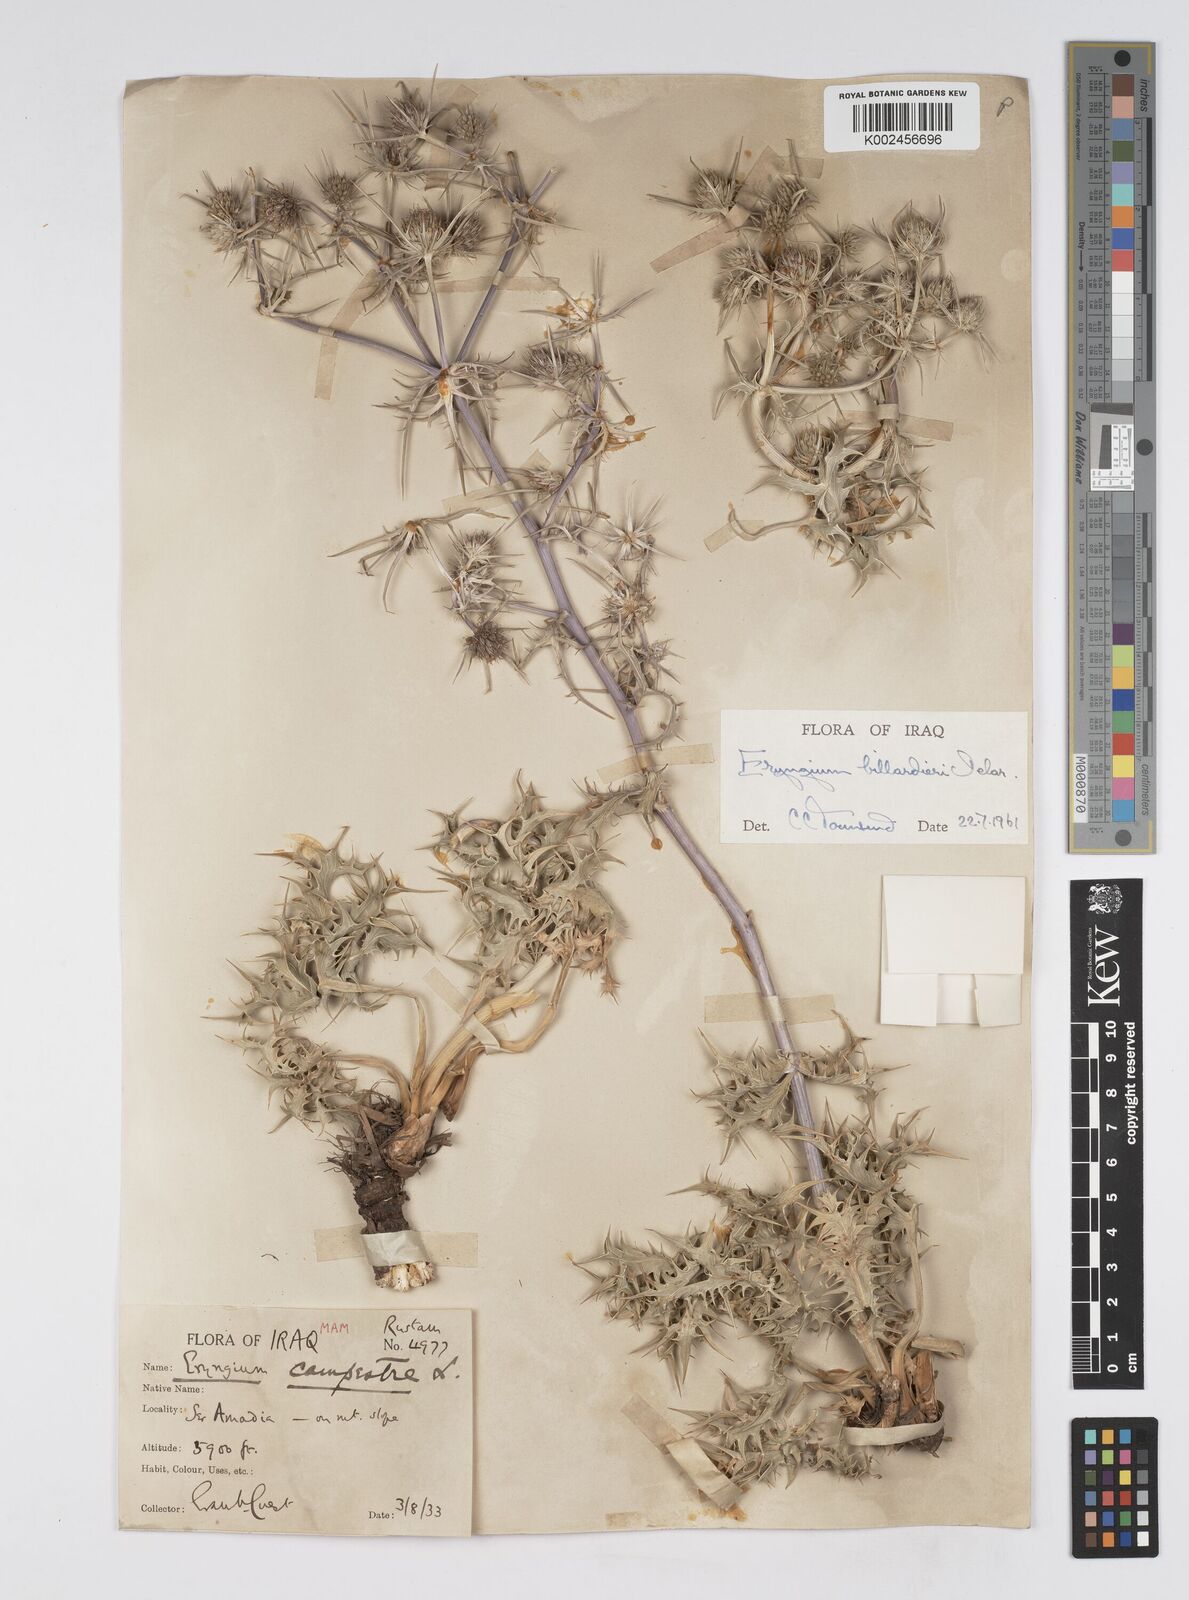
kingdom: Plantae
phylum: Tracheophyta
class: Magnoliopsida
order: Apiales
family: Apiaceae
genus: Eryngium
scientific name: Eryngium billardierei
